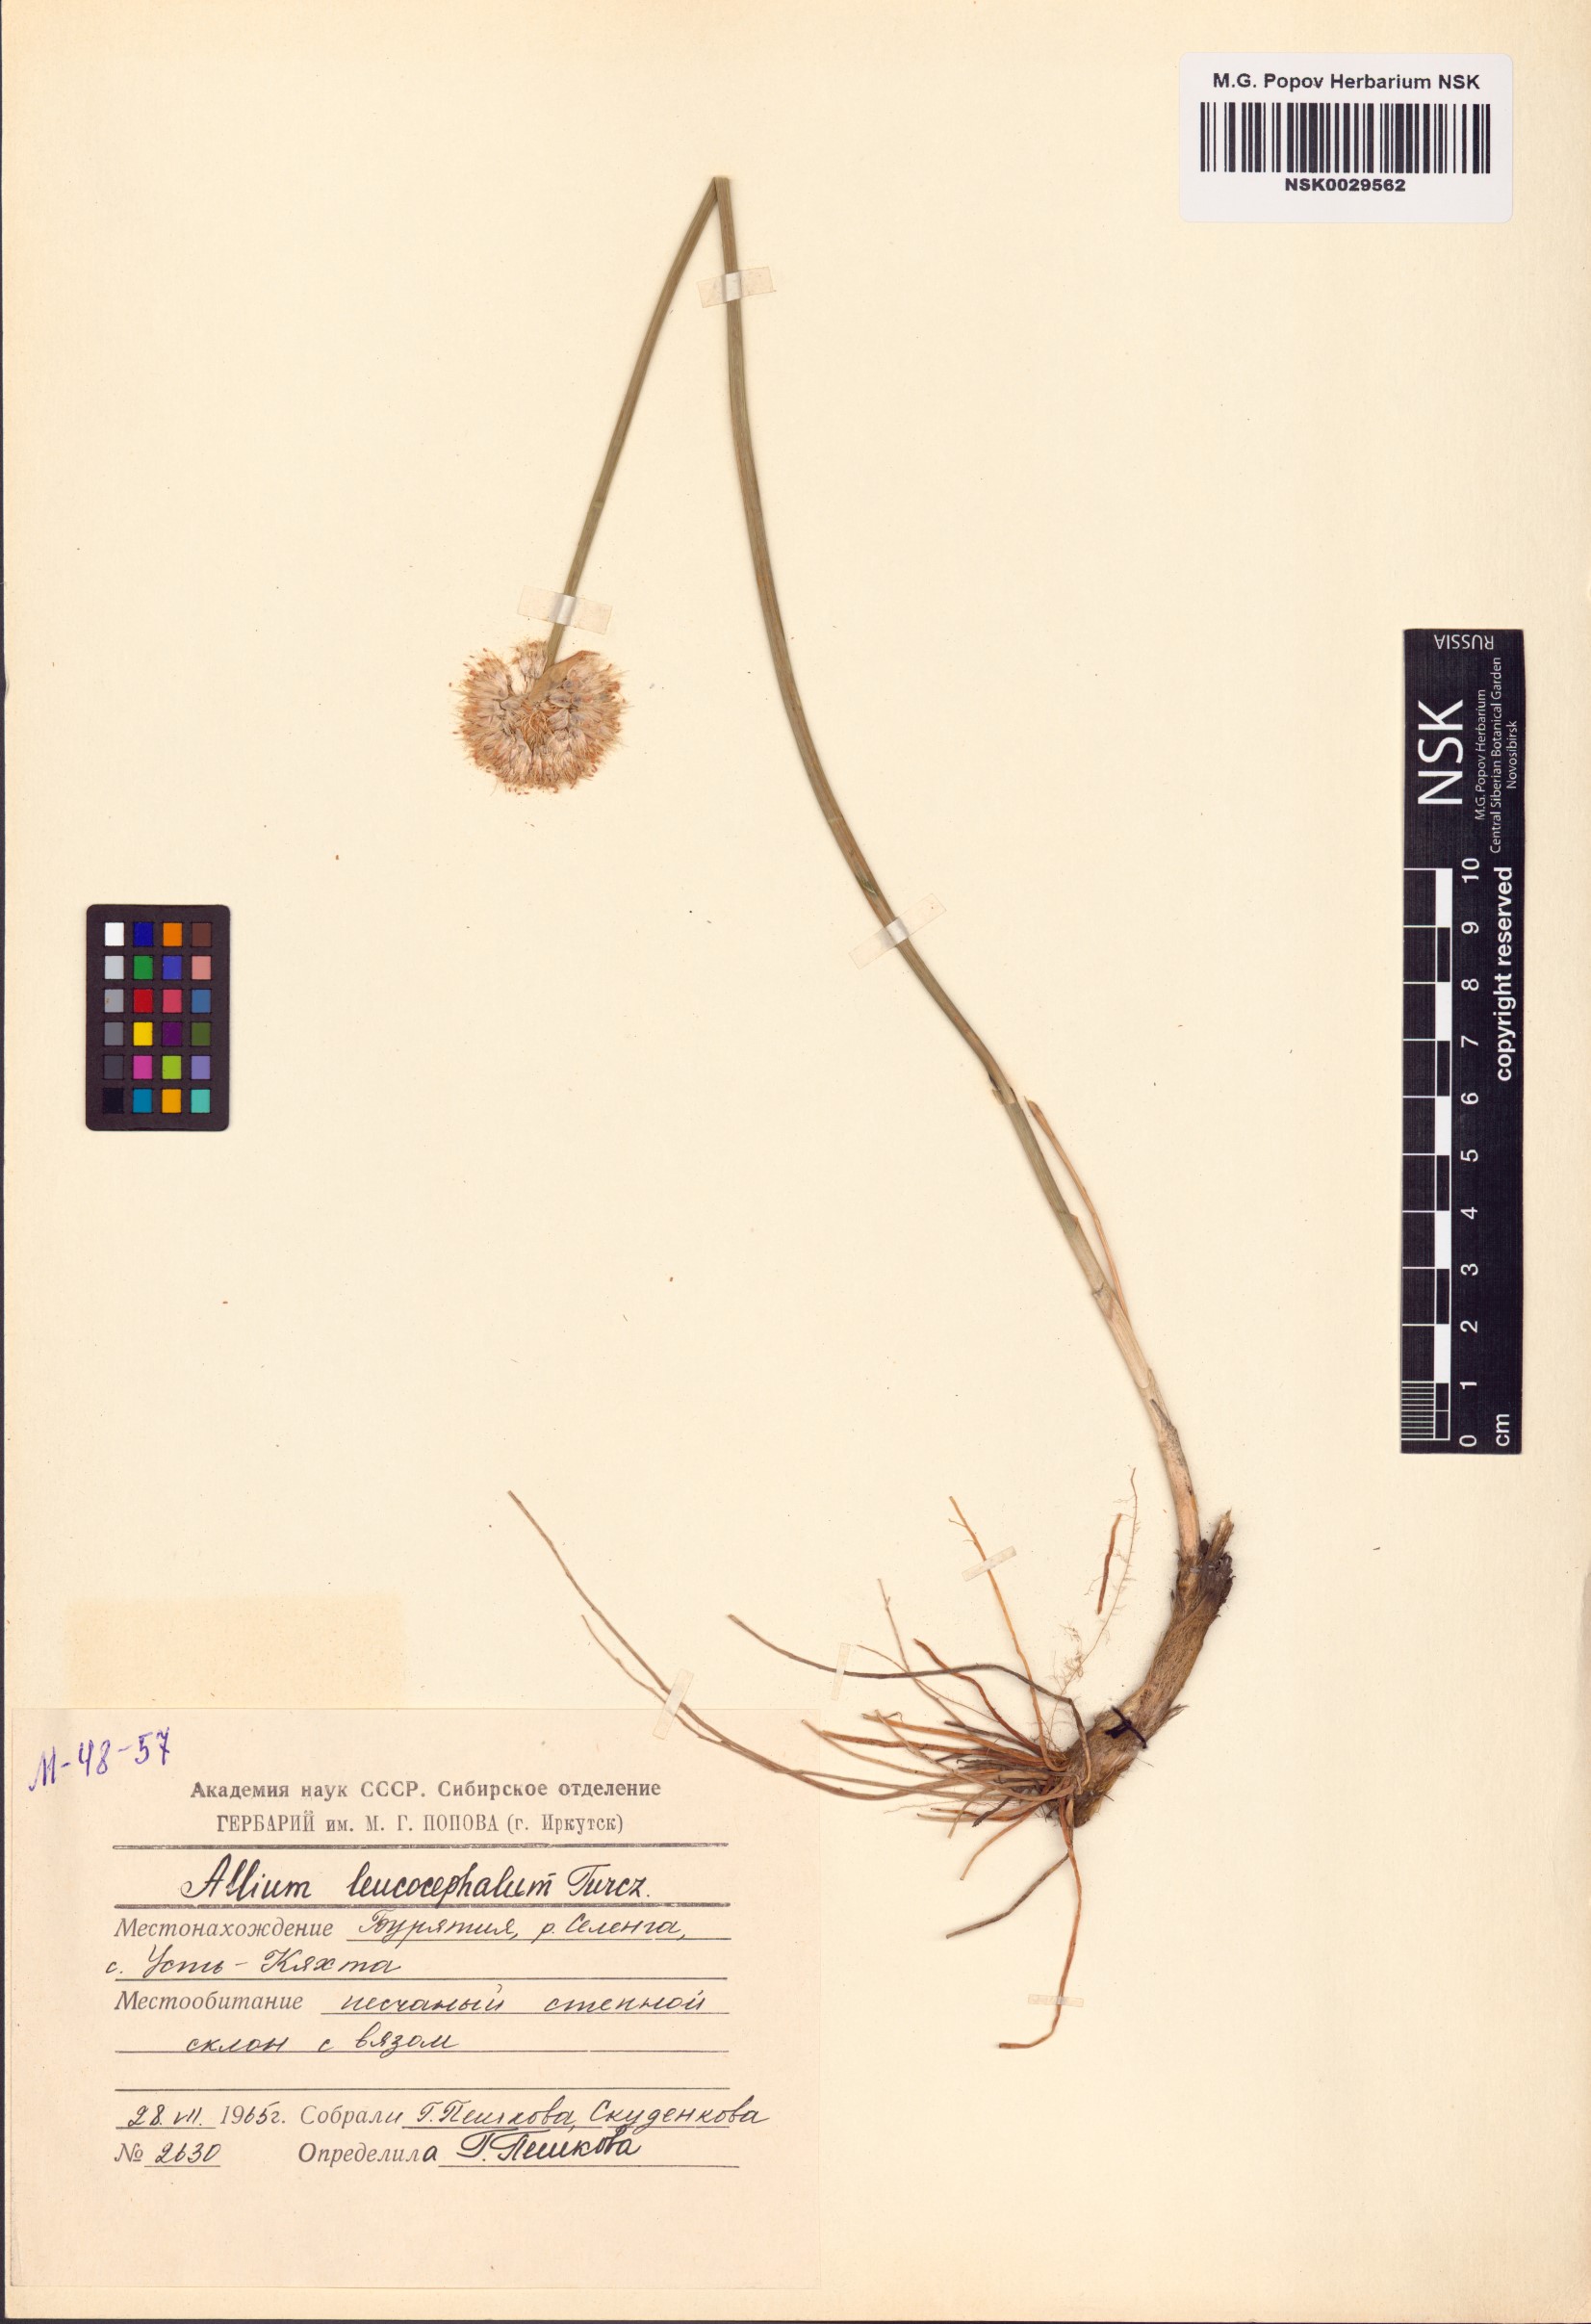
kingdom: Plantae
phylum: Tracheophyta
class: Liliopsida
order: Asparagales
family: Amaryllidaceae
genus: Allium
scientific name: Allium leucocephalum
